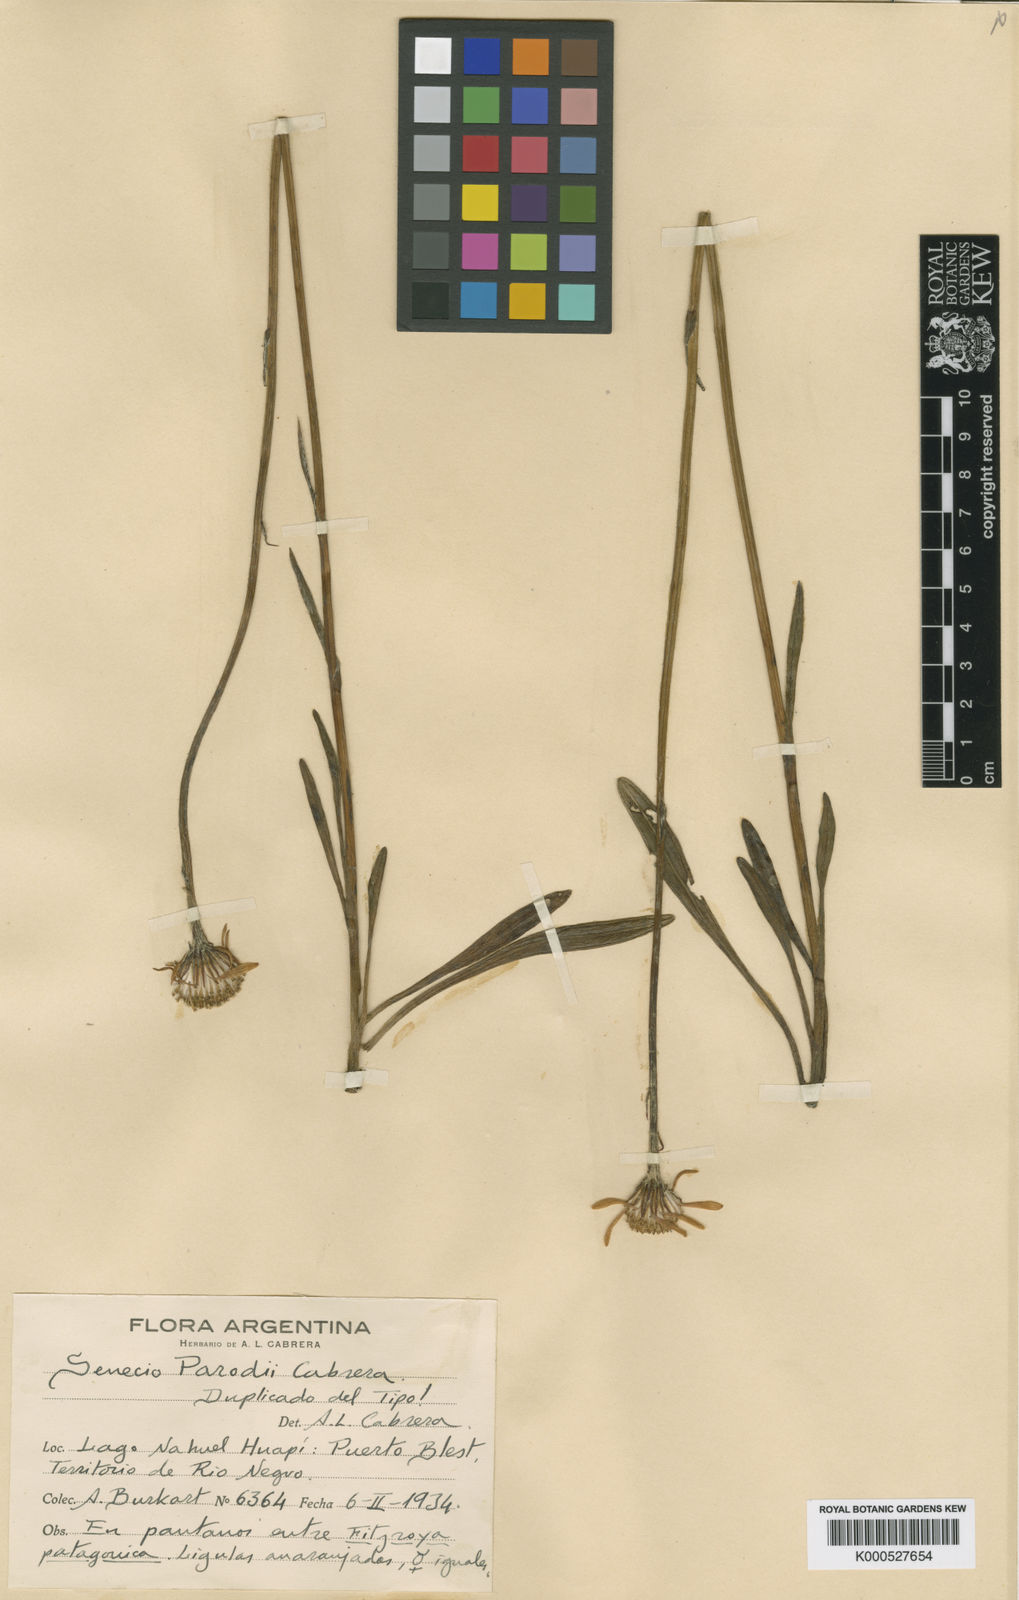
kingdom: Plantae
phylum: Tracheophyta
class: Magnoliopsida
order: Asterales
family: Asteraceae
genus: Senecio
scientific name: Senecio parodii
